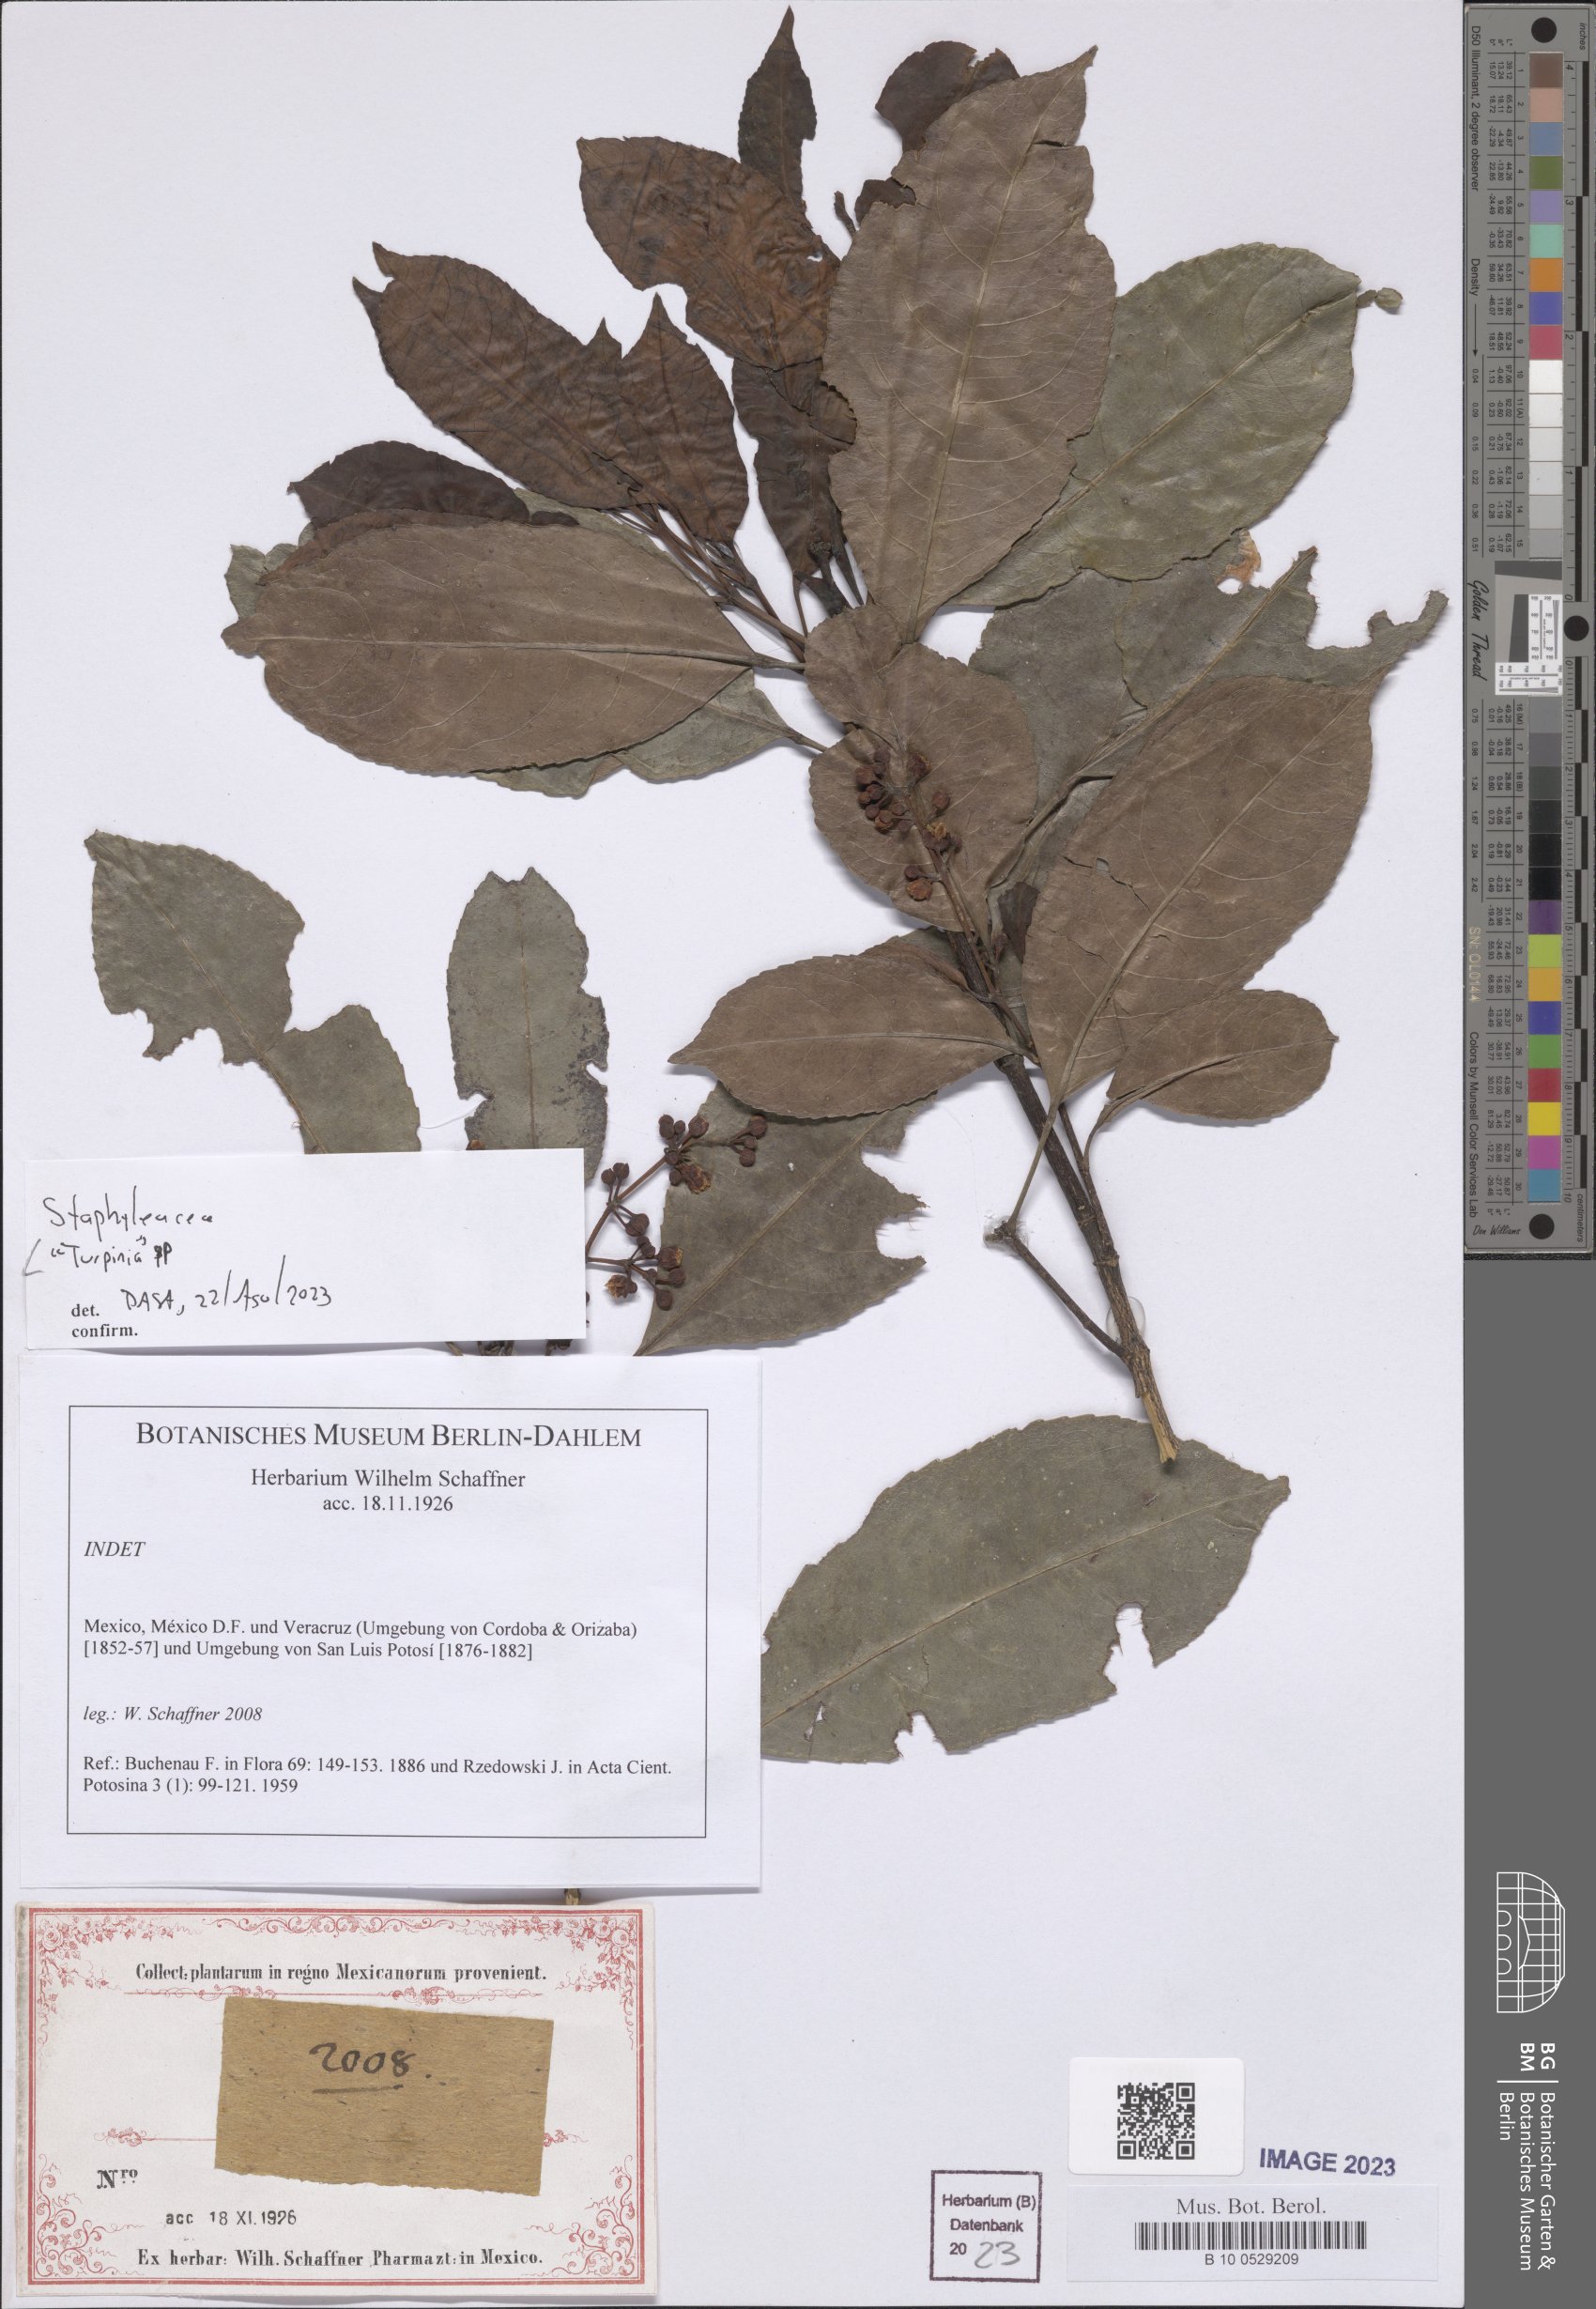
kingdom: Plantae
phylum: Tracheophyta
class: Magnoliopsida
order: Crossosomatales
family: Staphyleaceae
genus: Turpinia
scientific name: Turpinia
